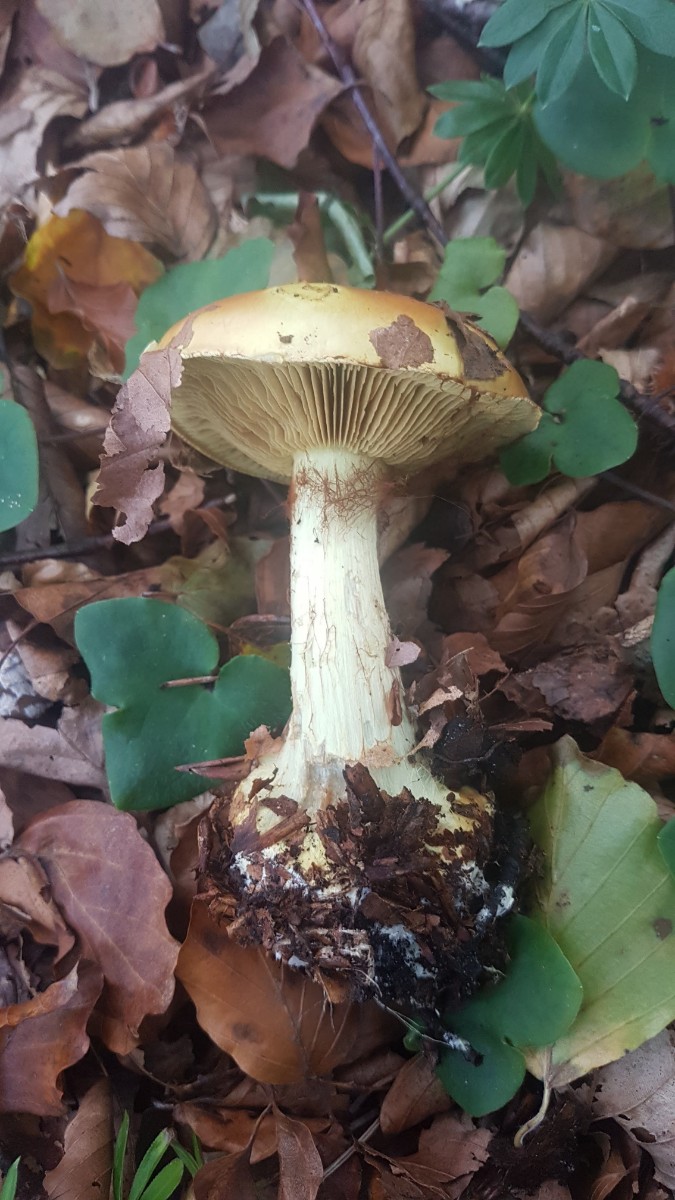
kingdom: Fungi
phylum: Basidiomycota
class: Agaricomycetes
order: Agaricales
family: Cortinariaceae
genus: Calonarius
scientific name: Calonarius elegantissimus
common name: orangegylden slørhat
